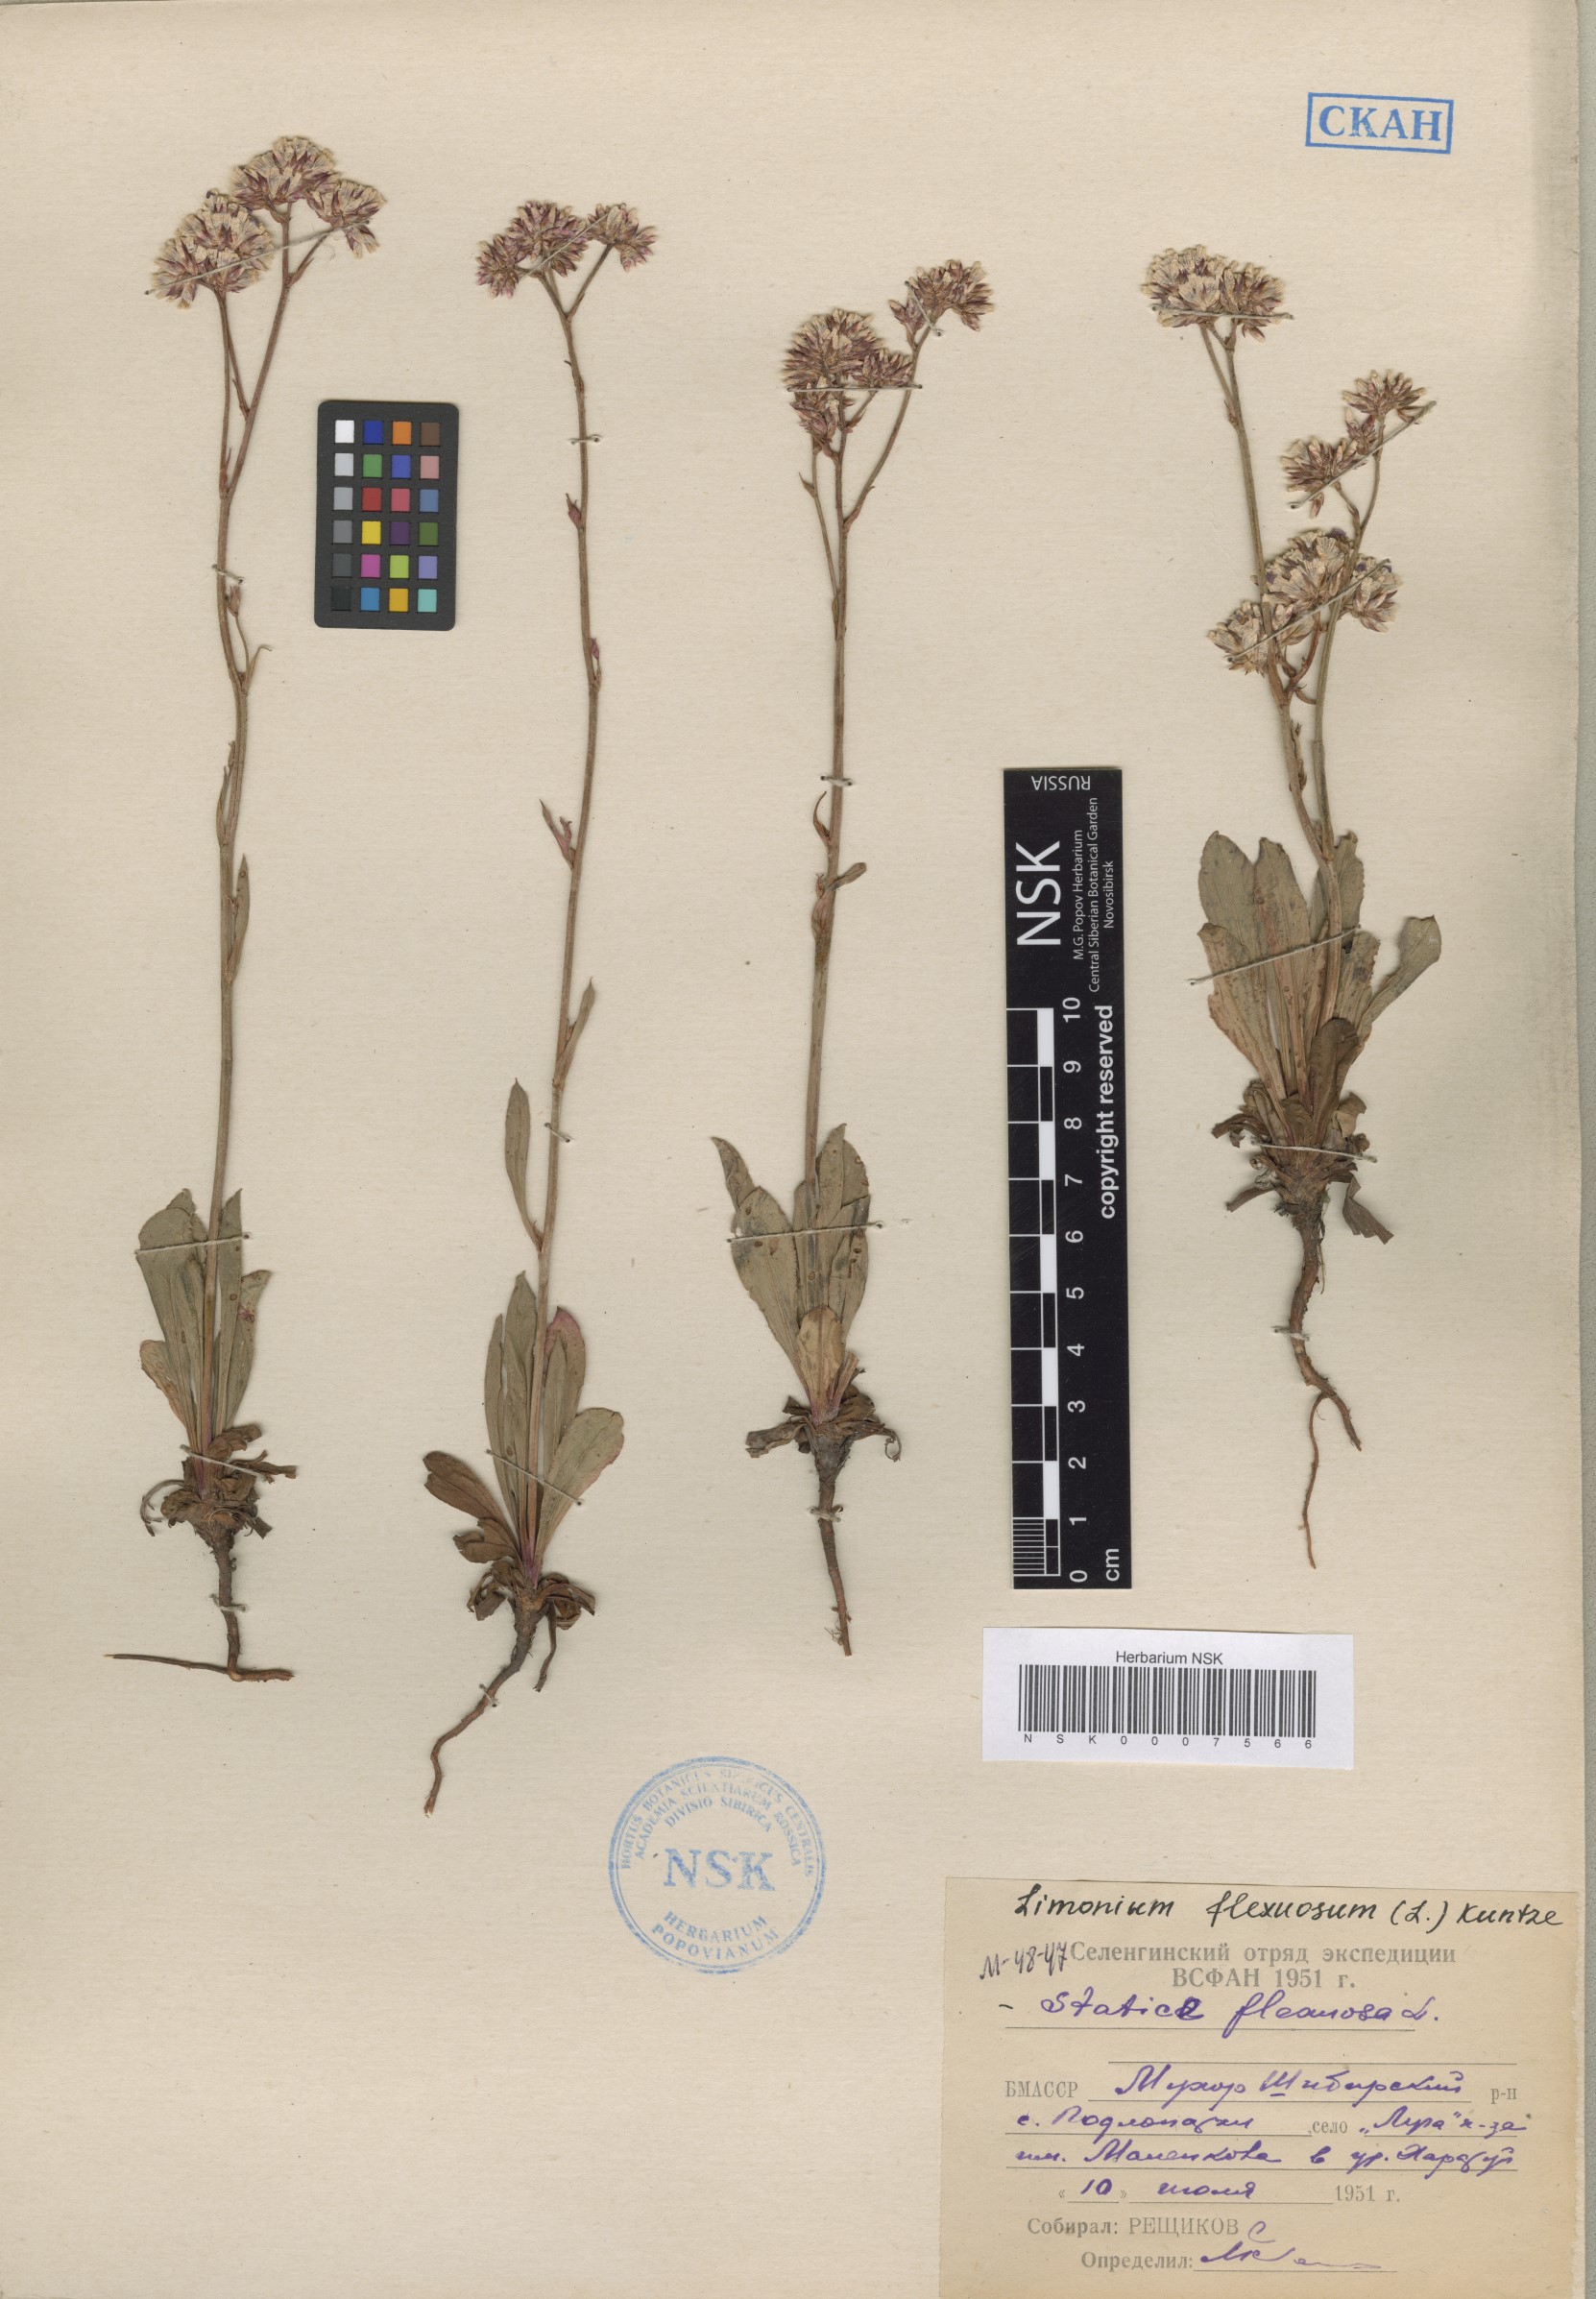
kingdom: Plantae
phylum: Tracheophyta
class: Magnoliopsida
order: Caryophyllales
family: Plumbaginaceae
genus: Limonium
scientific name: Limonium flexuosum
